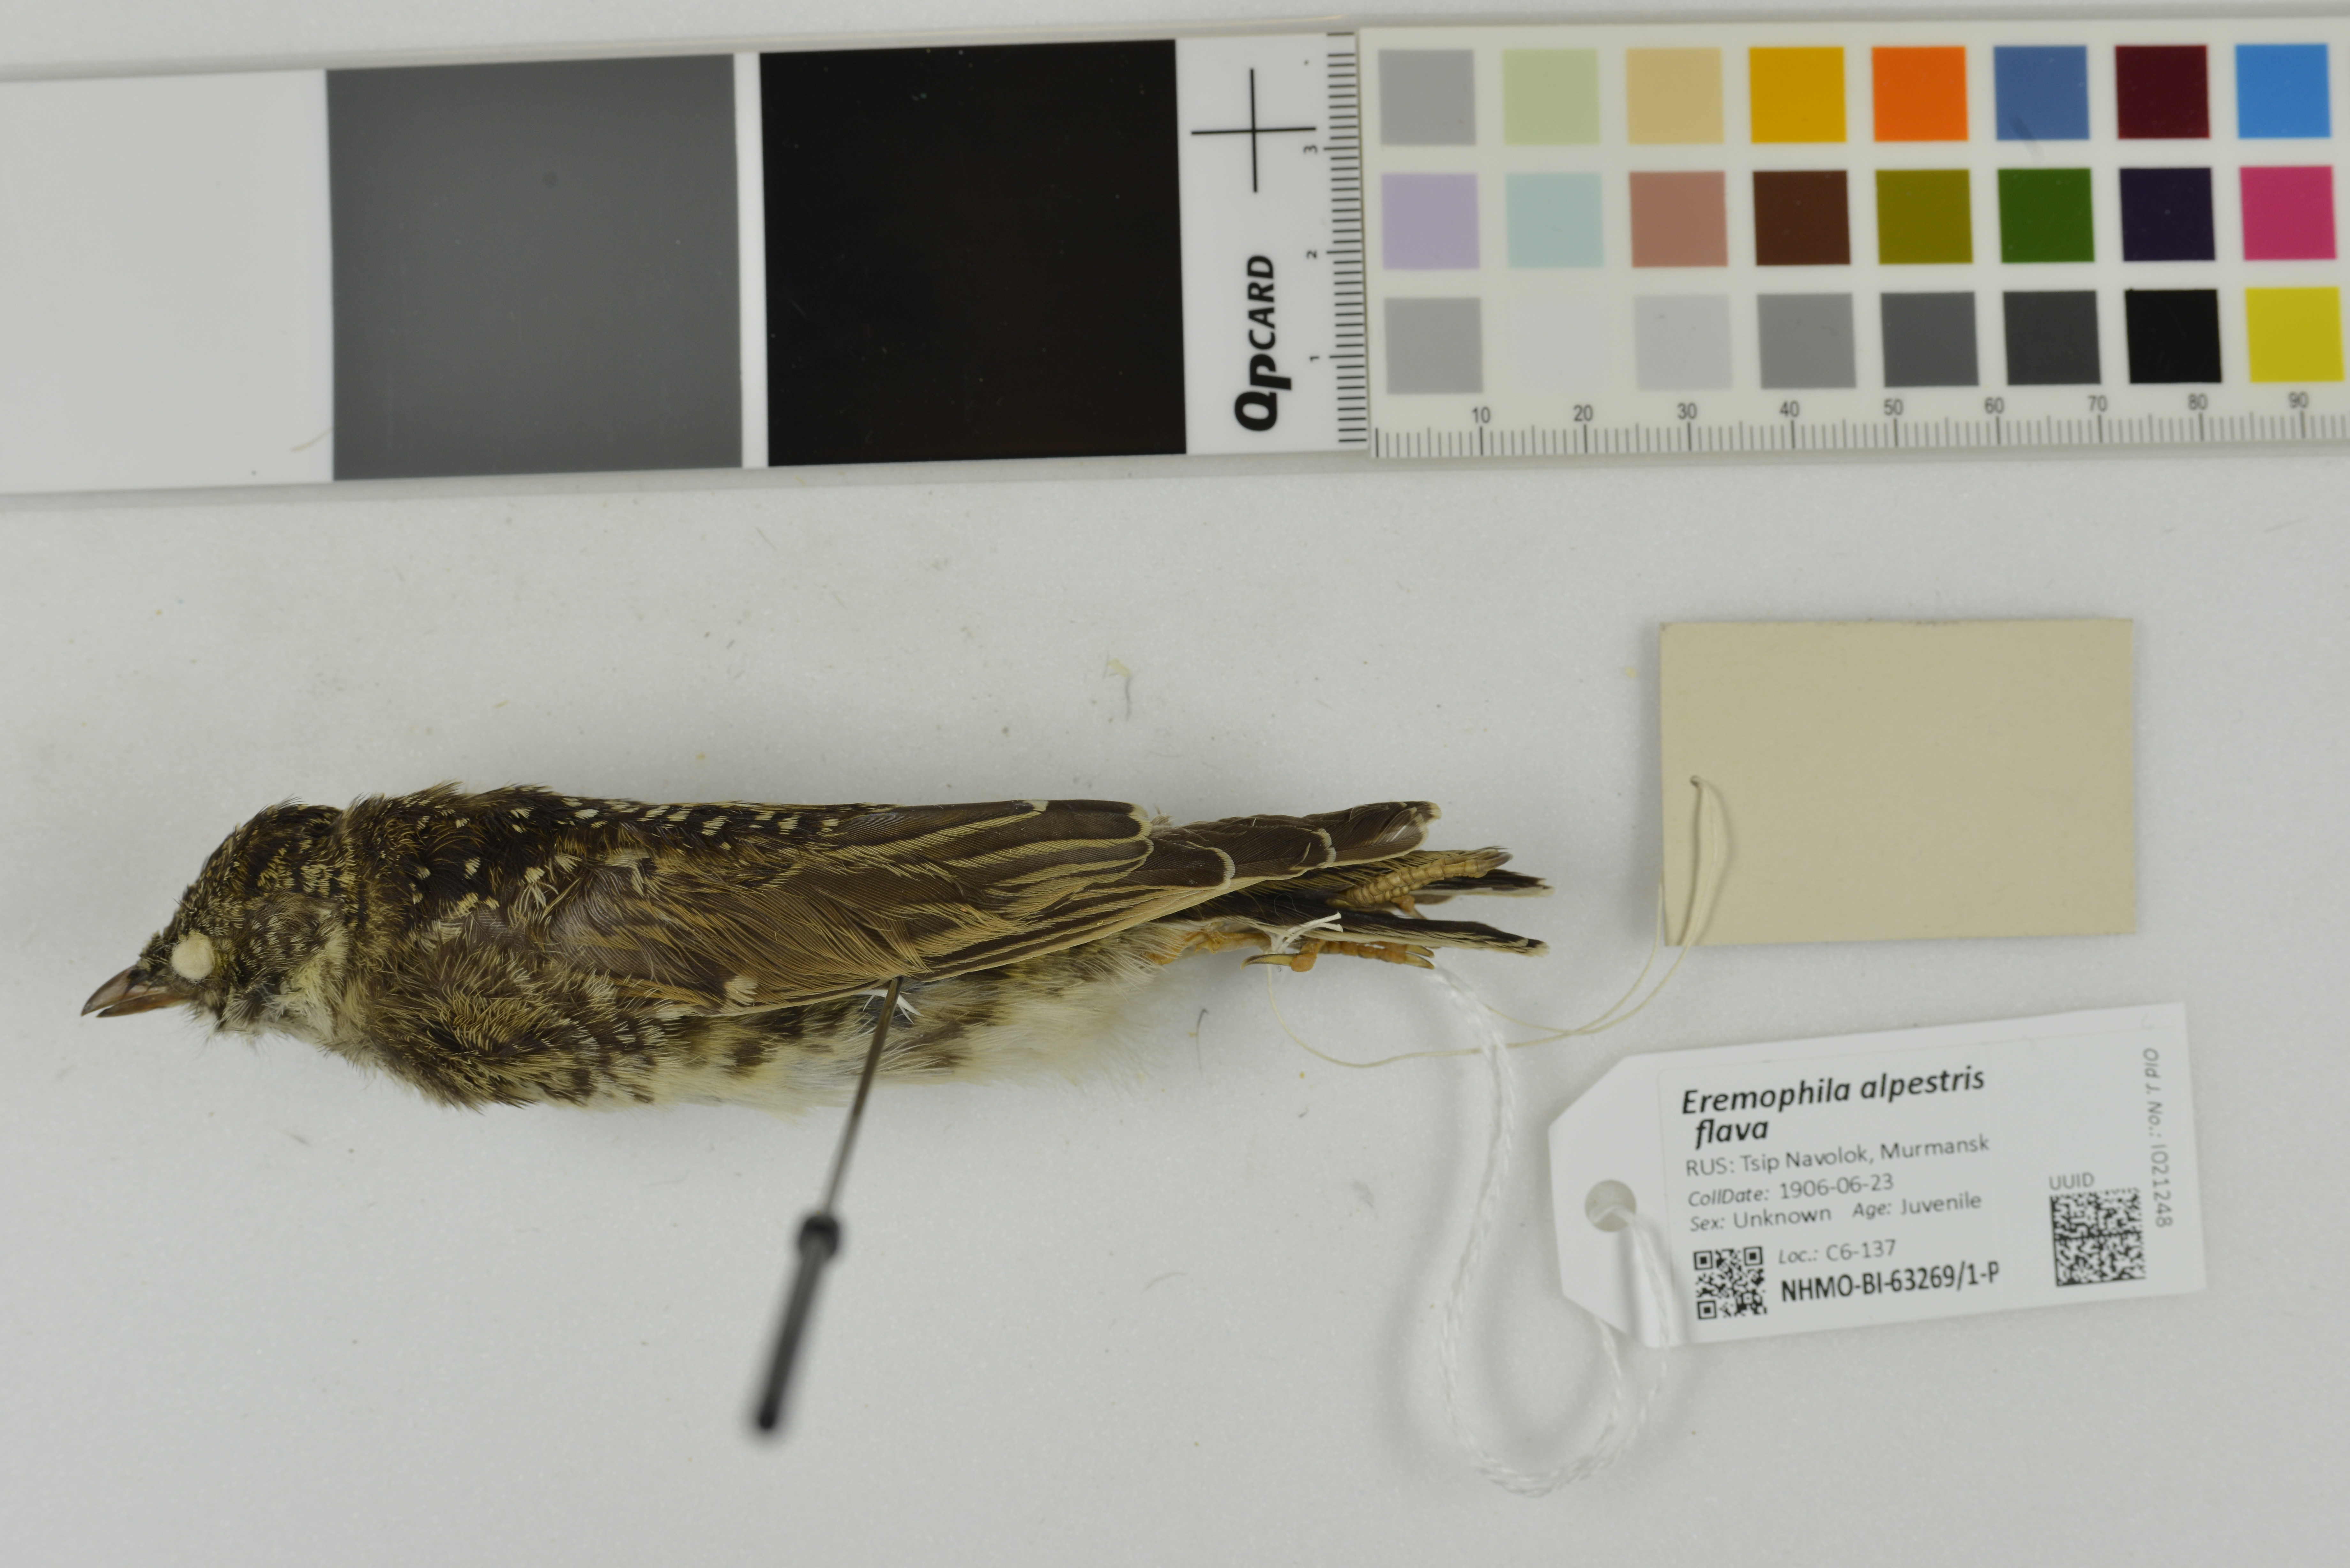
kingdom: Animalia
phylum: Chordata
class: Aves
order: Passeriformes
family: Alaudidae
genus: Eremophila
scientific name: Eremophila alpestris
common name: Horned lark
